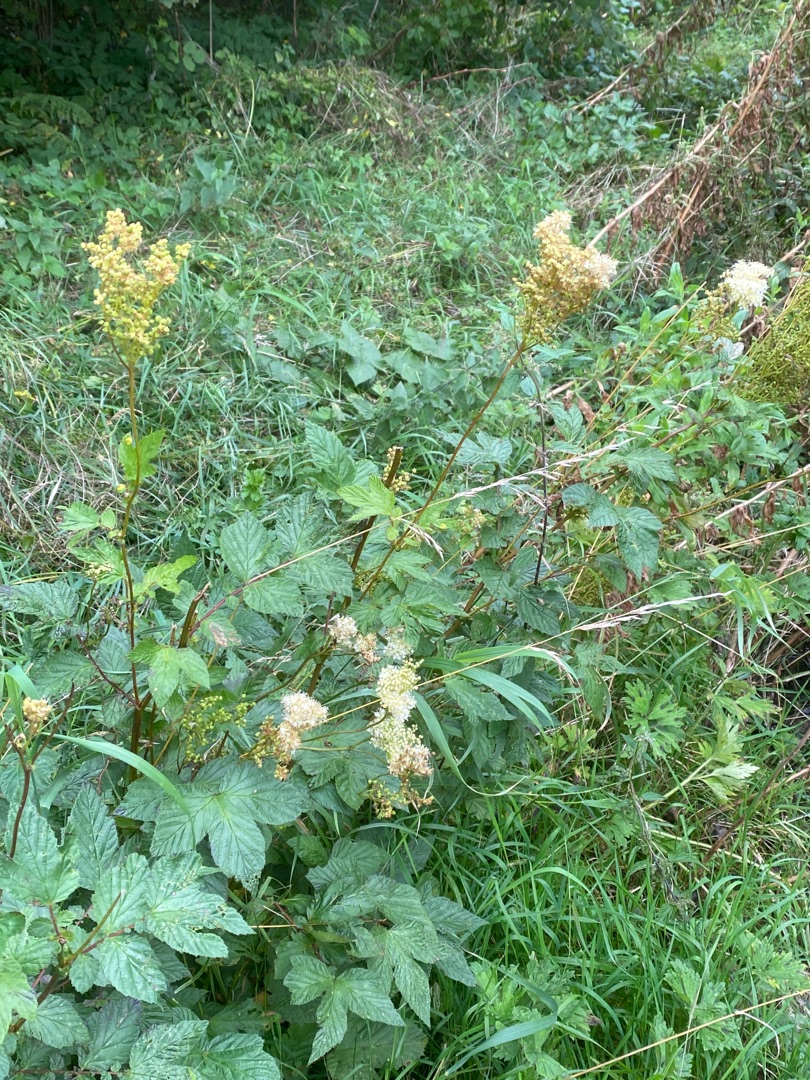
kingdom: Plantae
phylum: Tracheophyta
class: Magnoliopsida
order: Rosales
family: Rosaceae
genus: Filipendula
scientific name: Filipendula ulmaria
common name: Almindelig mjødurt
